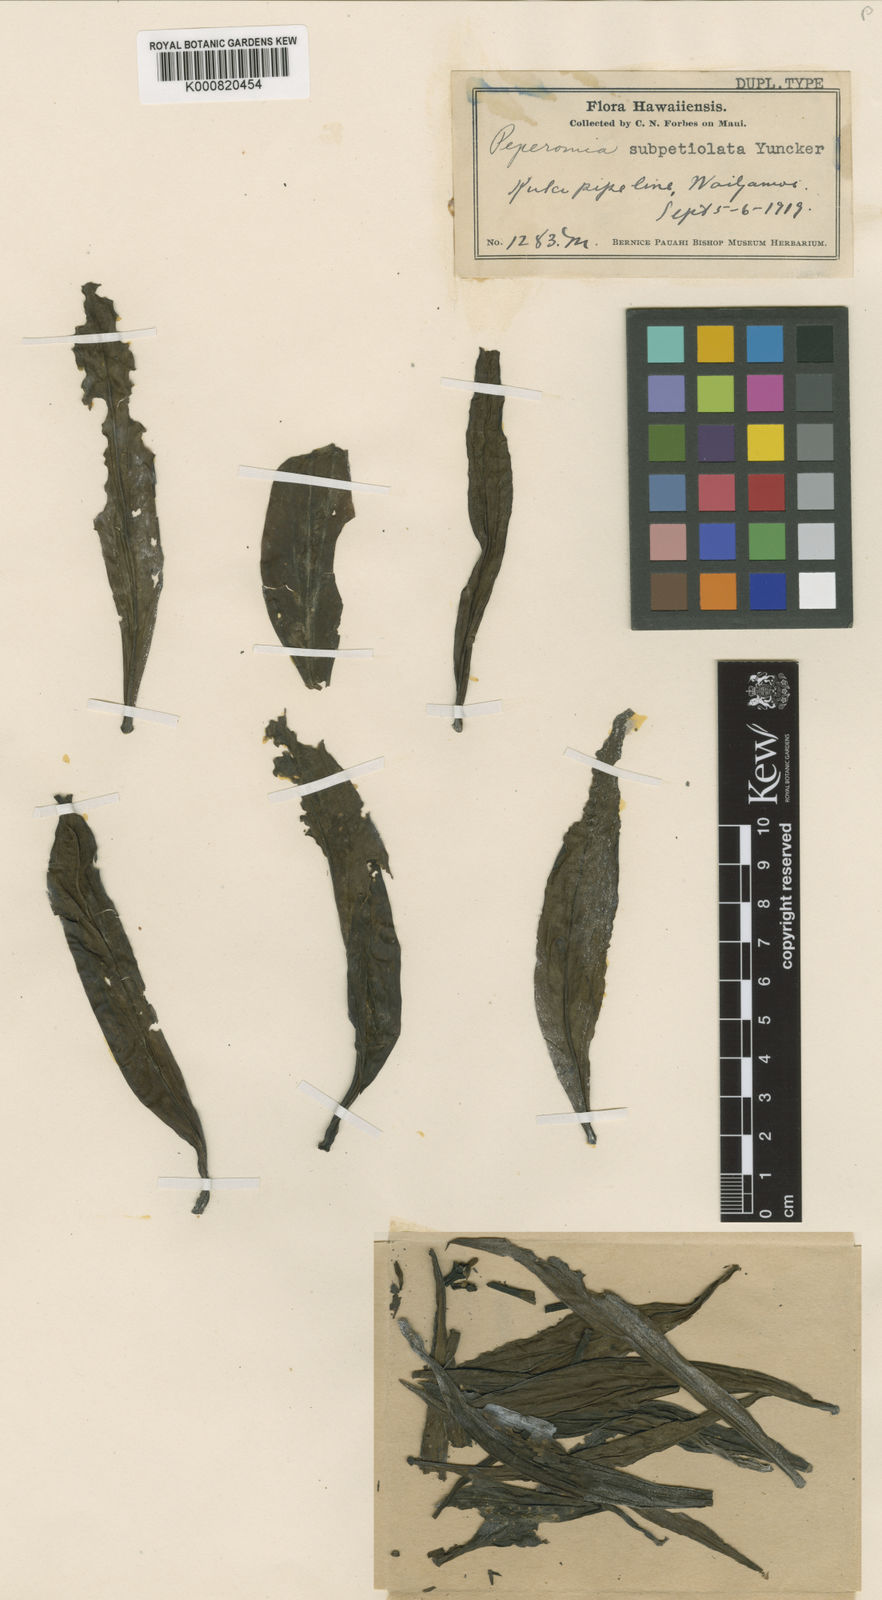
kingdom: Plantae
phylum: Tracheophyta
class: Magnoliopsida
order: Piperales
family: Piperaceae
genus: Peperomia
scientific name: Peperomia subpetiolata
